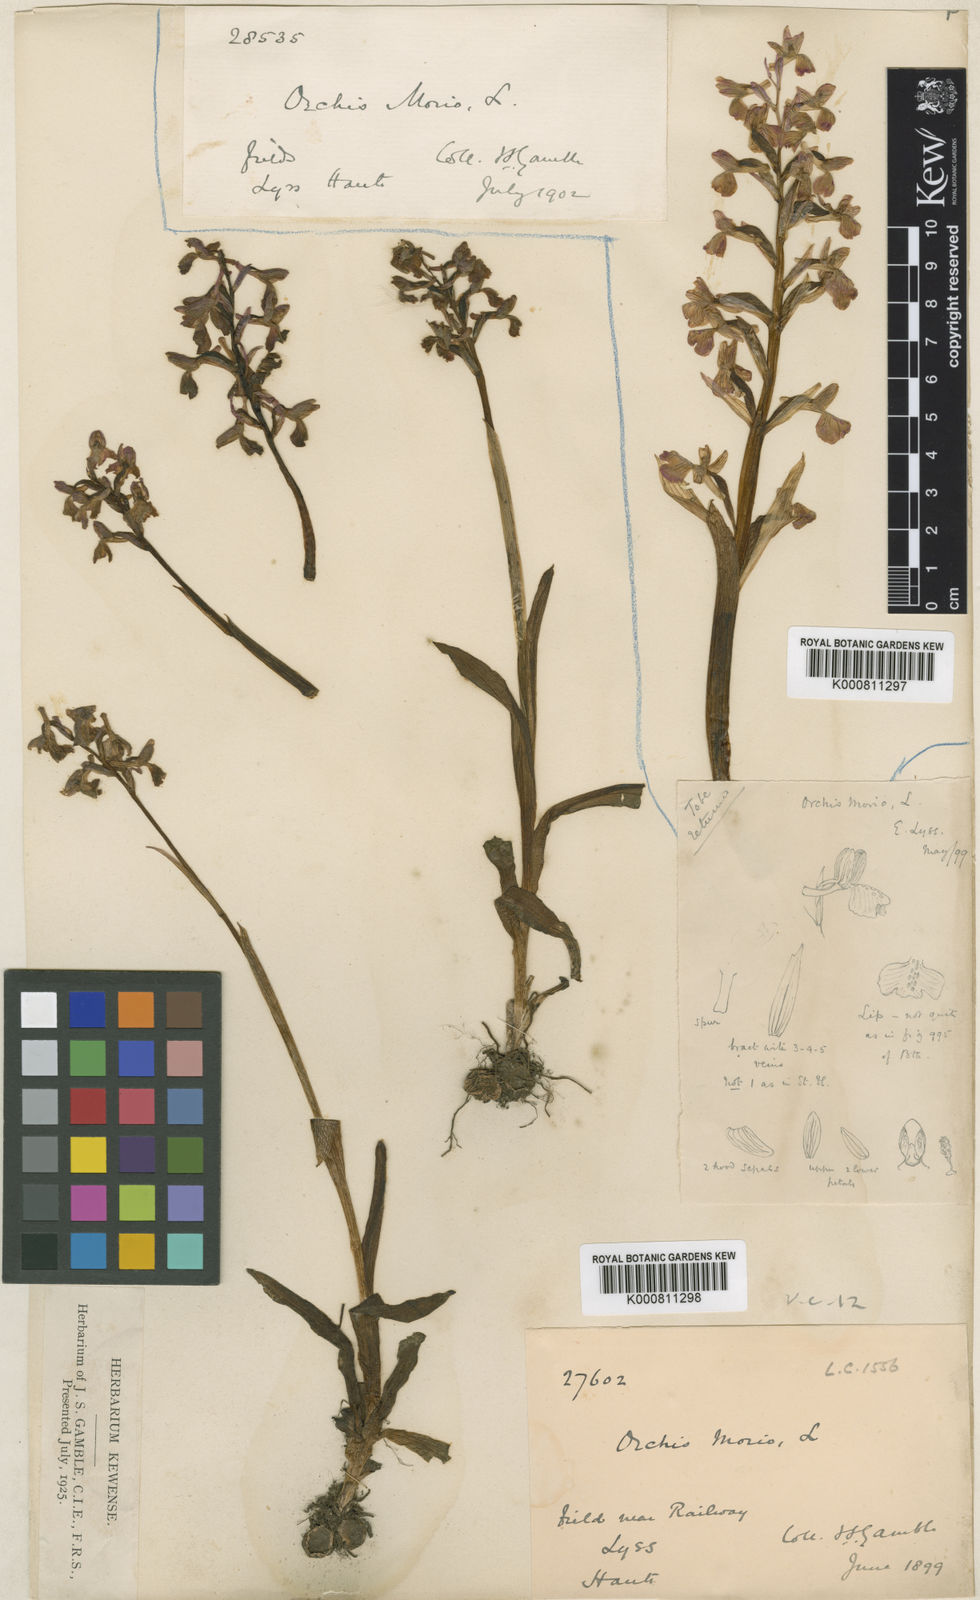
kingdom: Plantae
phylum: Tracheophyta
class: Liliopsida
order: Asparagales
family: Orchidaceae
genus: Anacamptis
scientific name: Anacamptis morio
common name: Green-winged orchid
